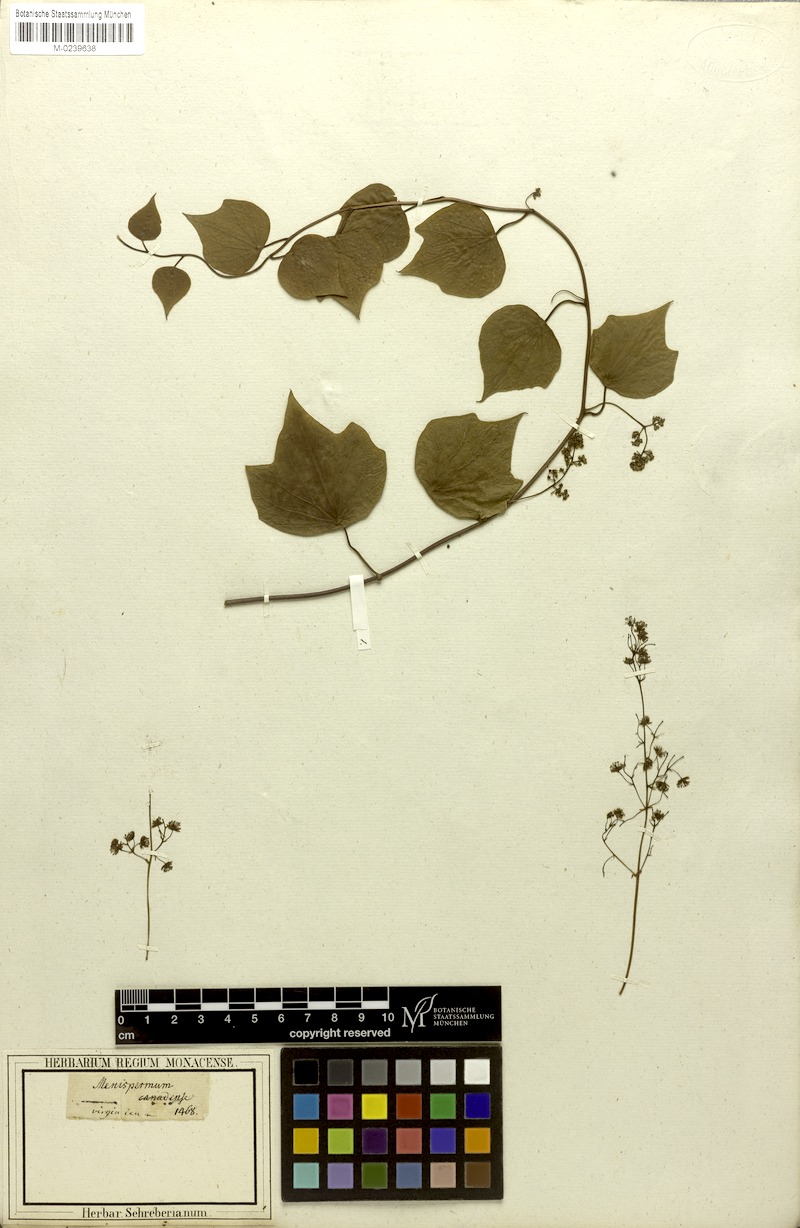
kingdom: Plantae
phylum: Tracheophyta
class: Magnoliopsida
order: Ranunculales
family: Menispermaceae
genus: Menispermum
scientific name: Menispermum canadense
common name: Moonseed
